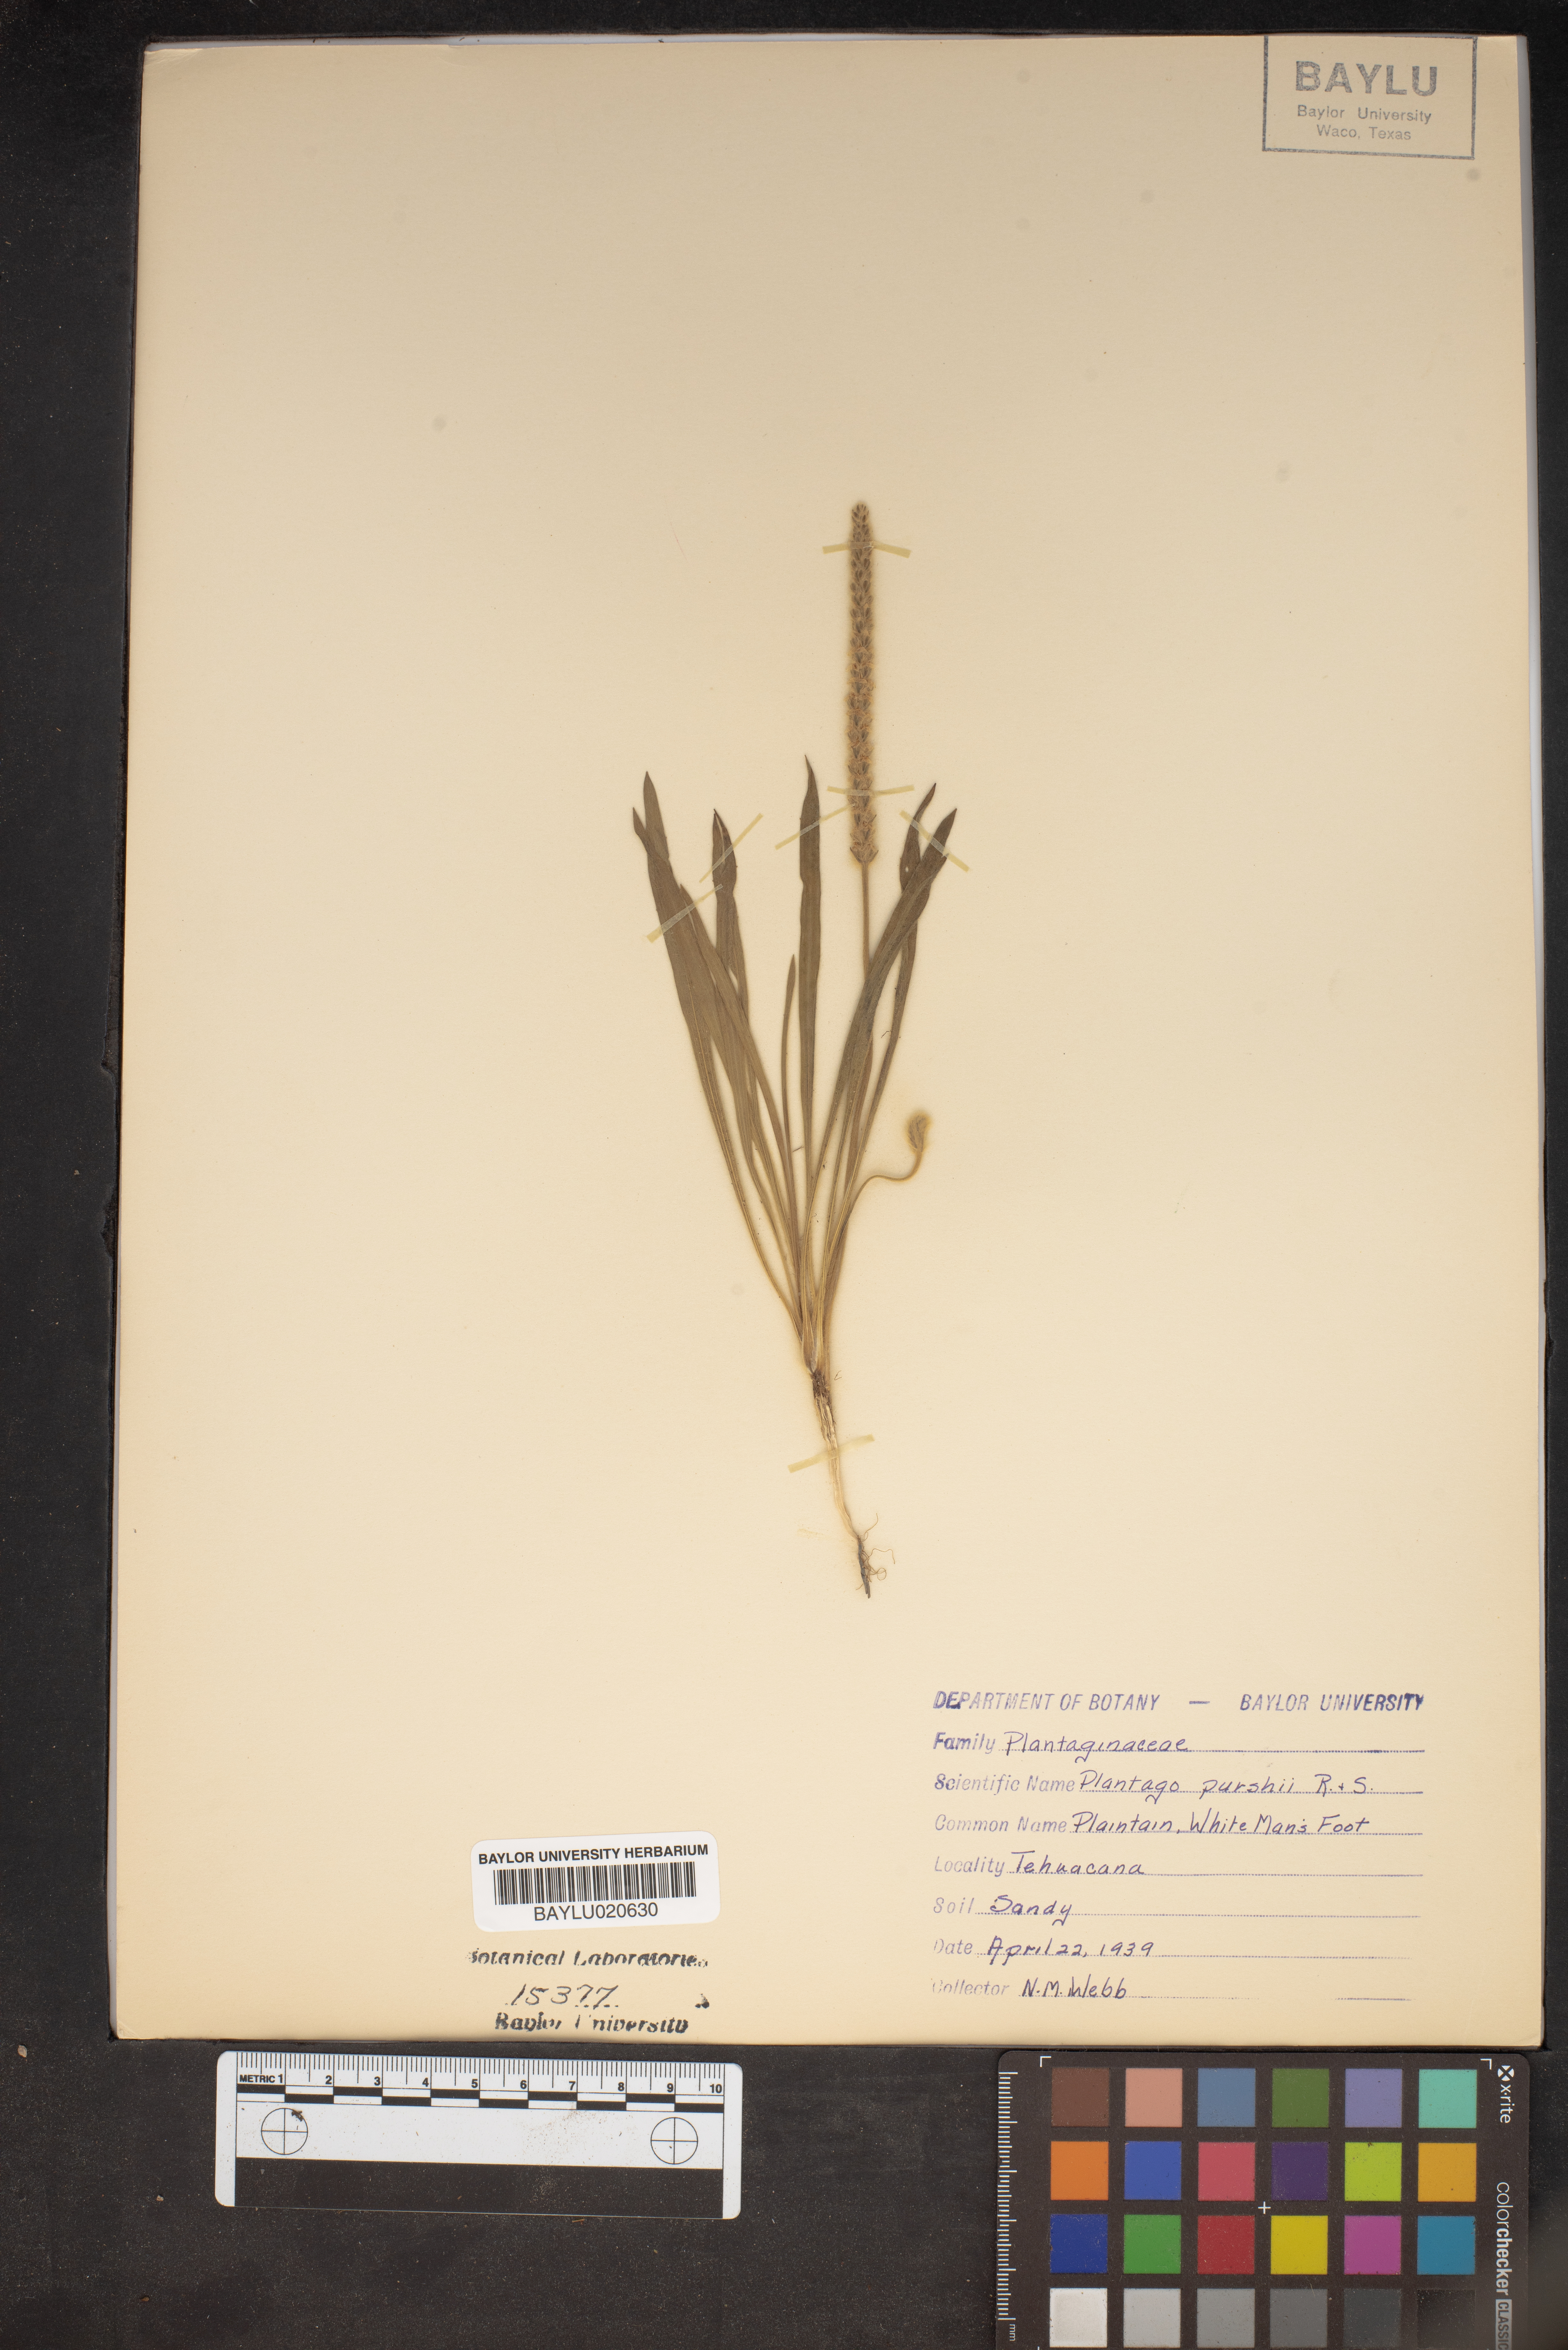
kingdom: Plantae
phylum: Tracheophyta
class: Magnoliopsida
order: Lamiales
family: Plantaginaceae
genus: Plantago
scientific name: Plantago patagonica
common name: Patagonia indian-wheat
